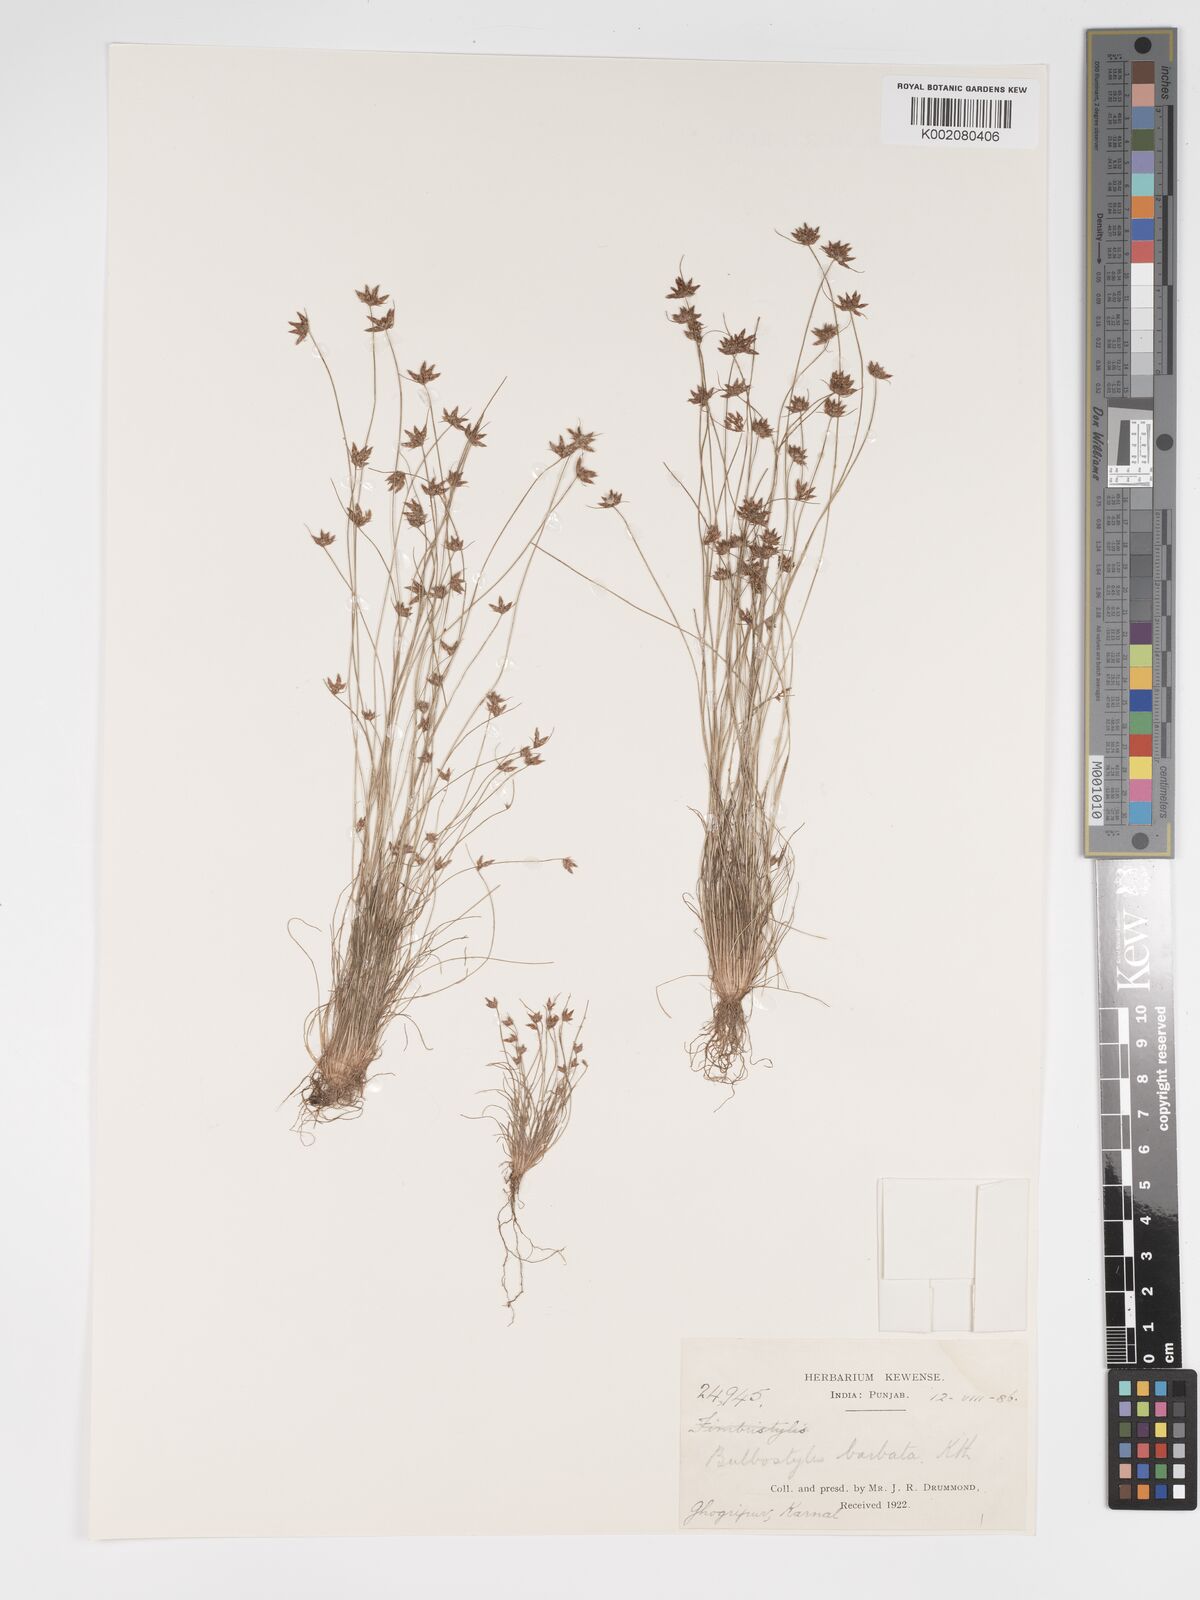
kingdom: Plantae
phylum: Tracheophyta
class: Liliopsida
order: Poales
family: Cyperaceae
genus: Bulbostylis
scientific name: Bulbostylis barbata
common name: Watergrass
